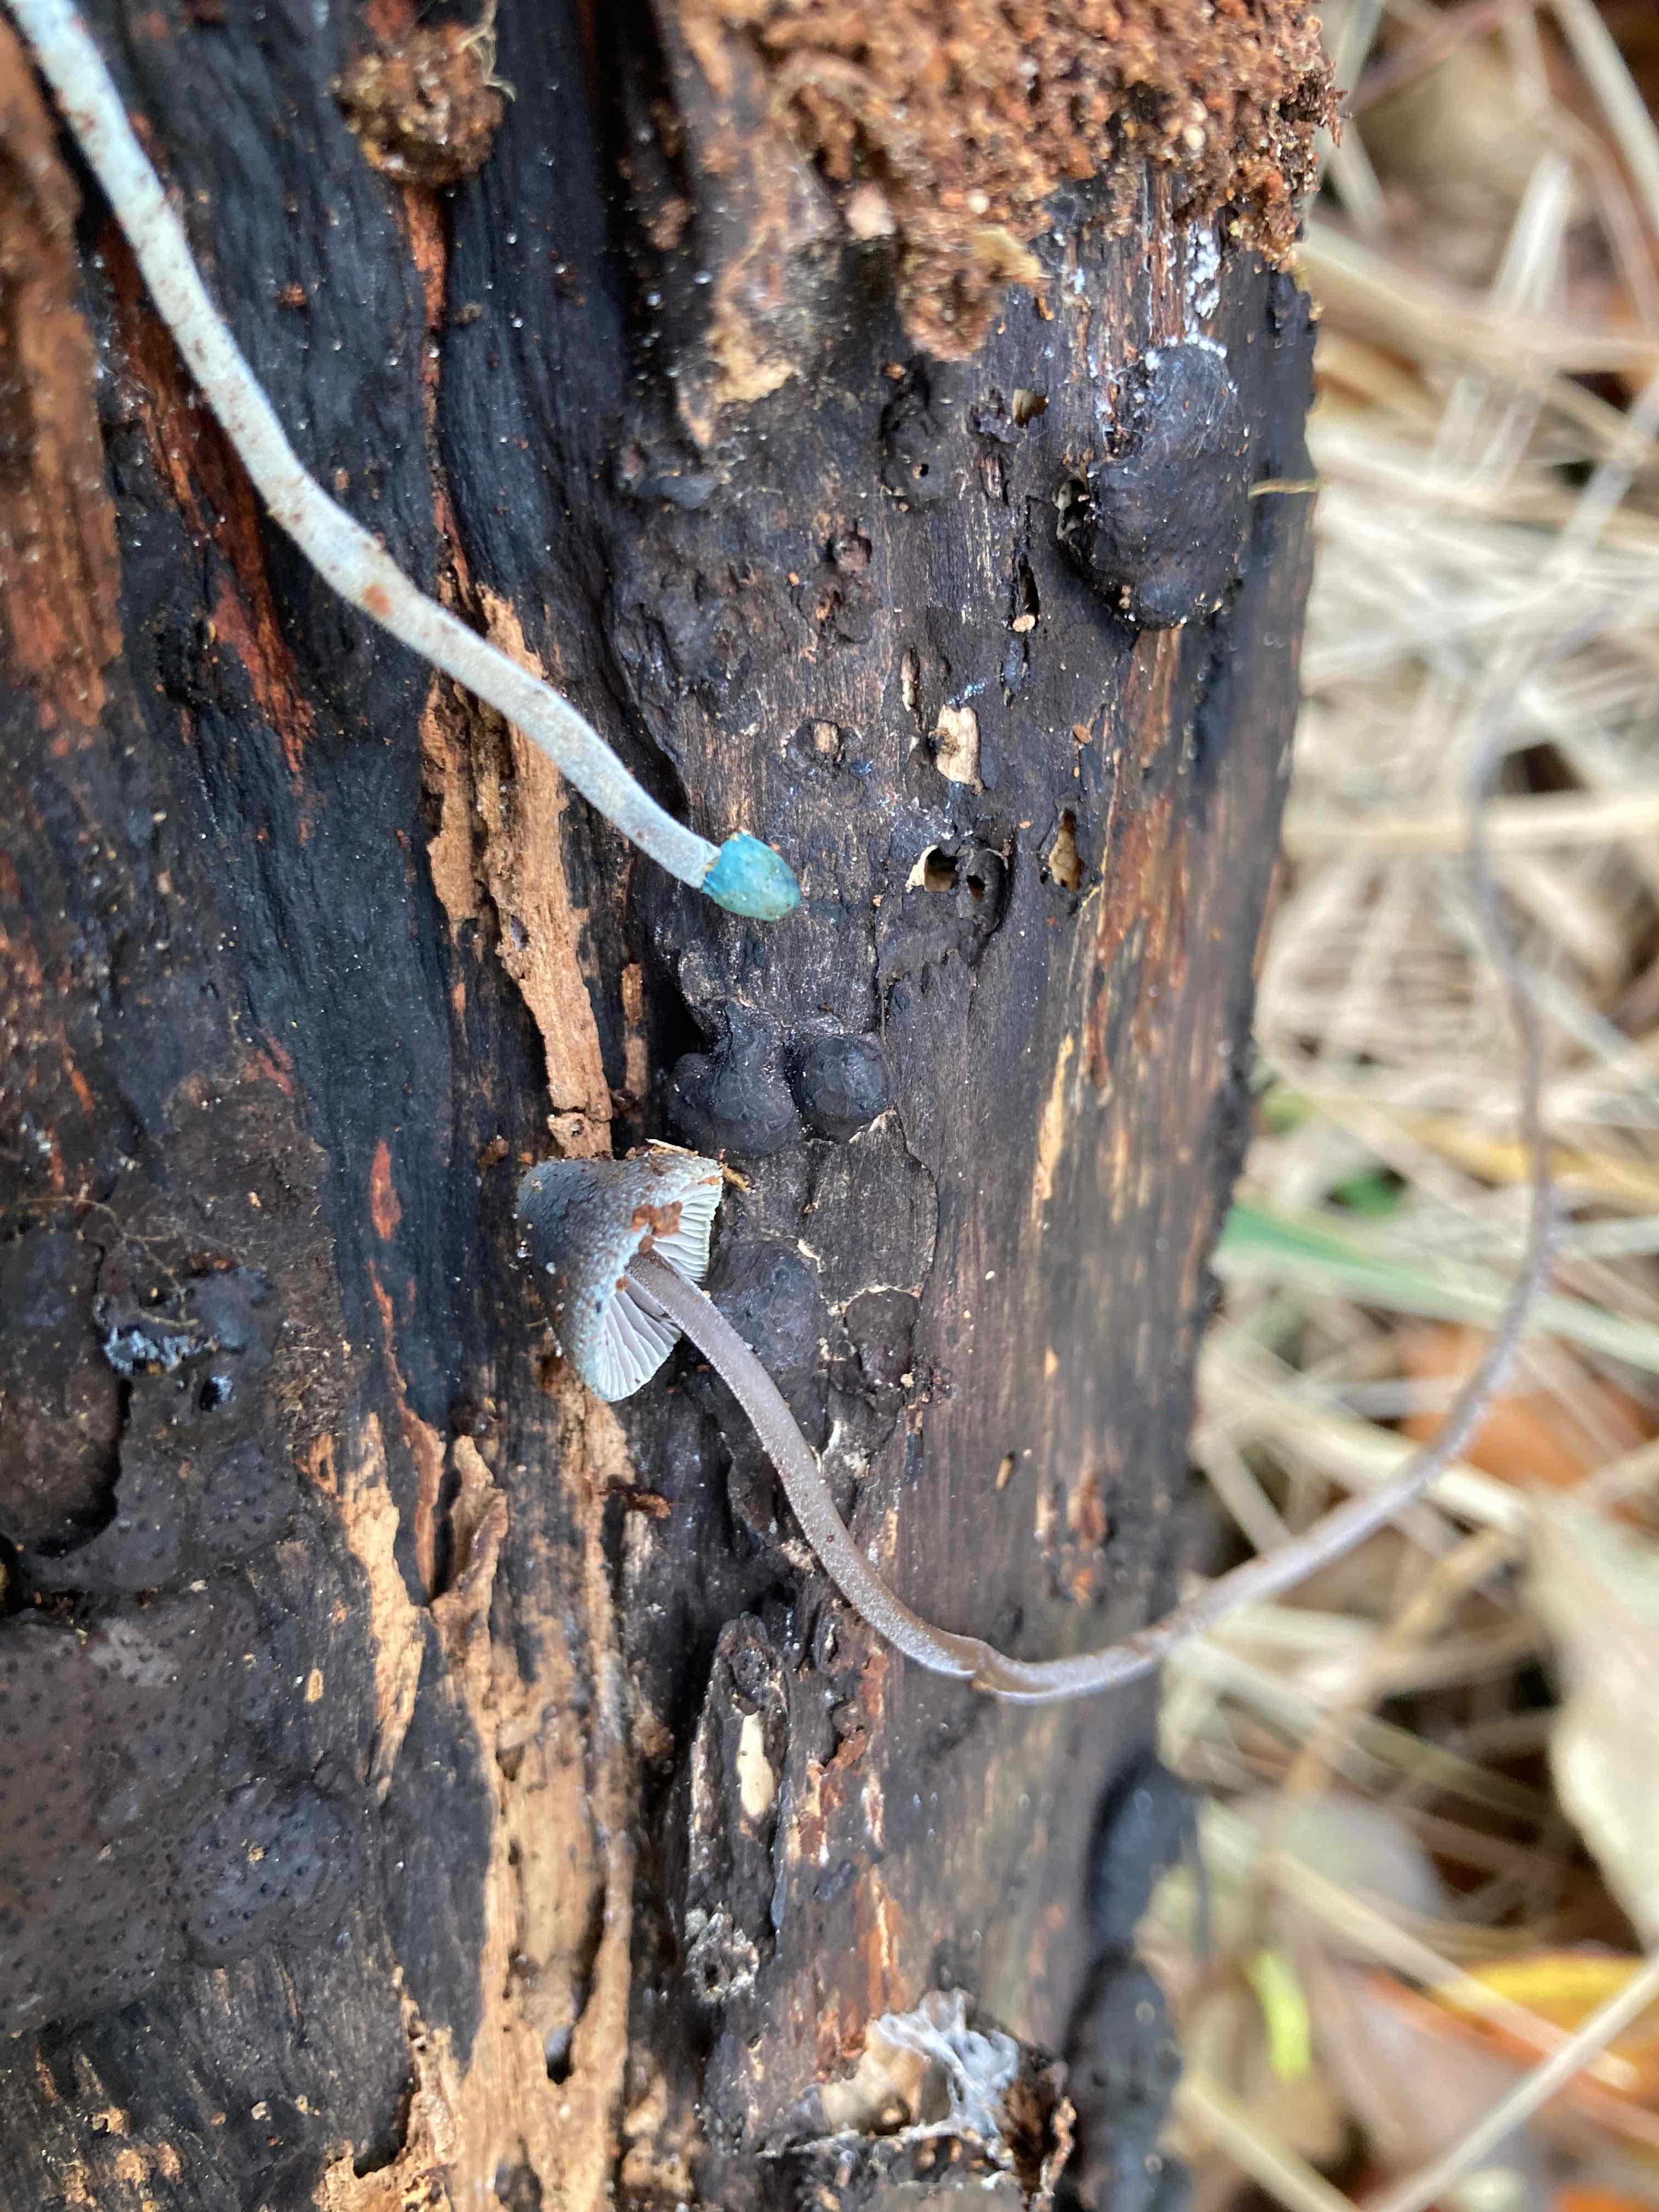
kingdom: Fungi
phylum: Basidiomycota
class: Agaricomycetes
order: Agaricales
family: Mycenaceae
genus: Mycena
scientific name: Mycena amicta
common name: iris-huesvamp
